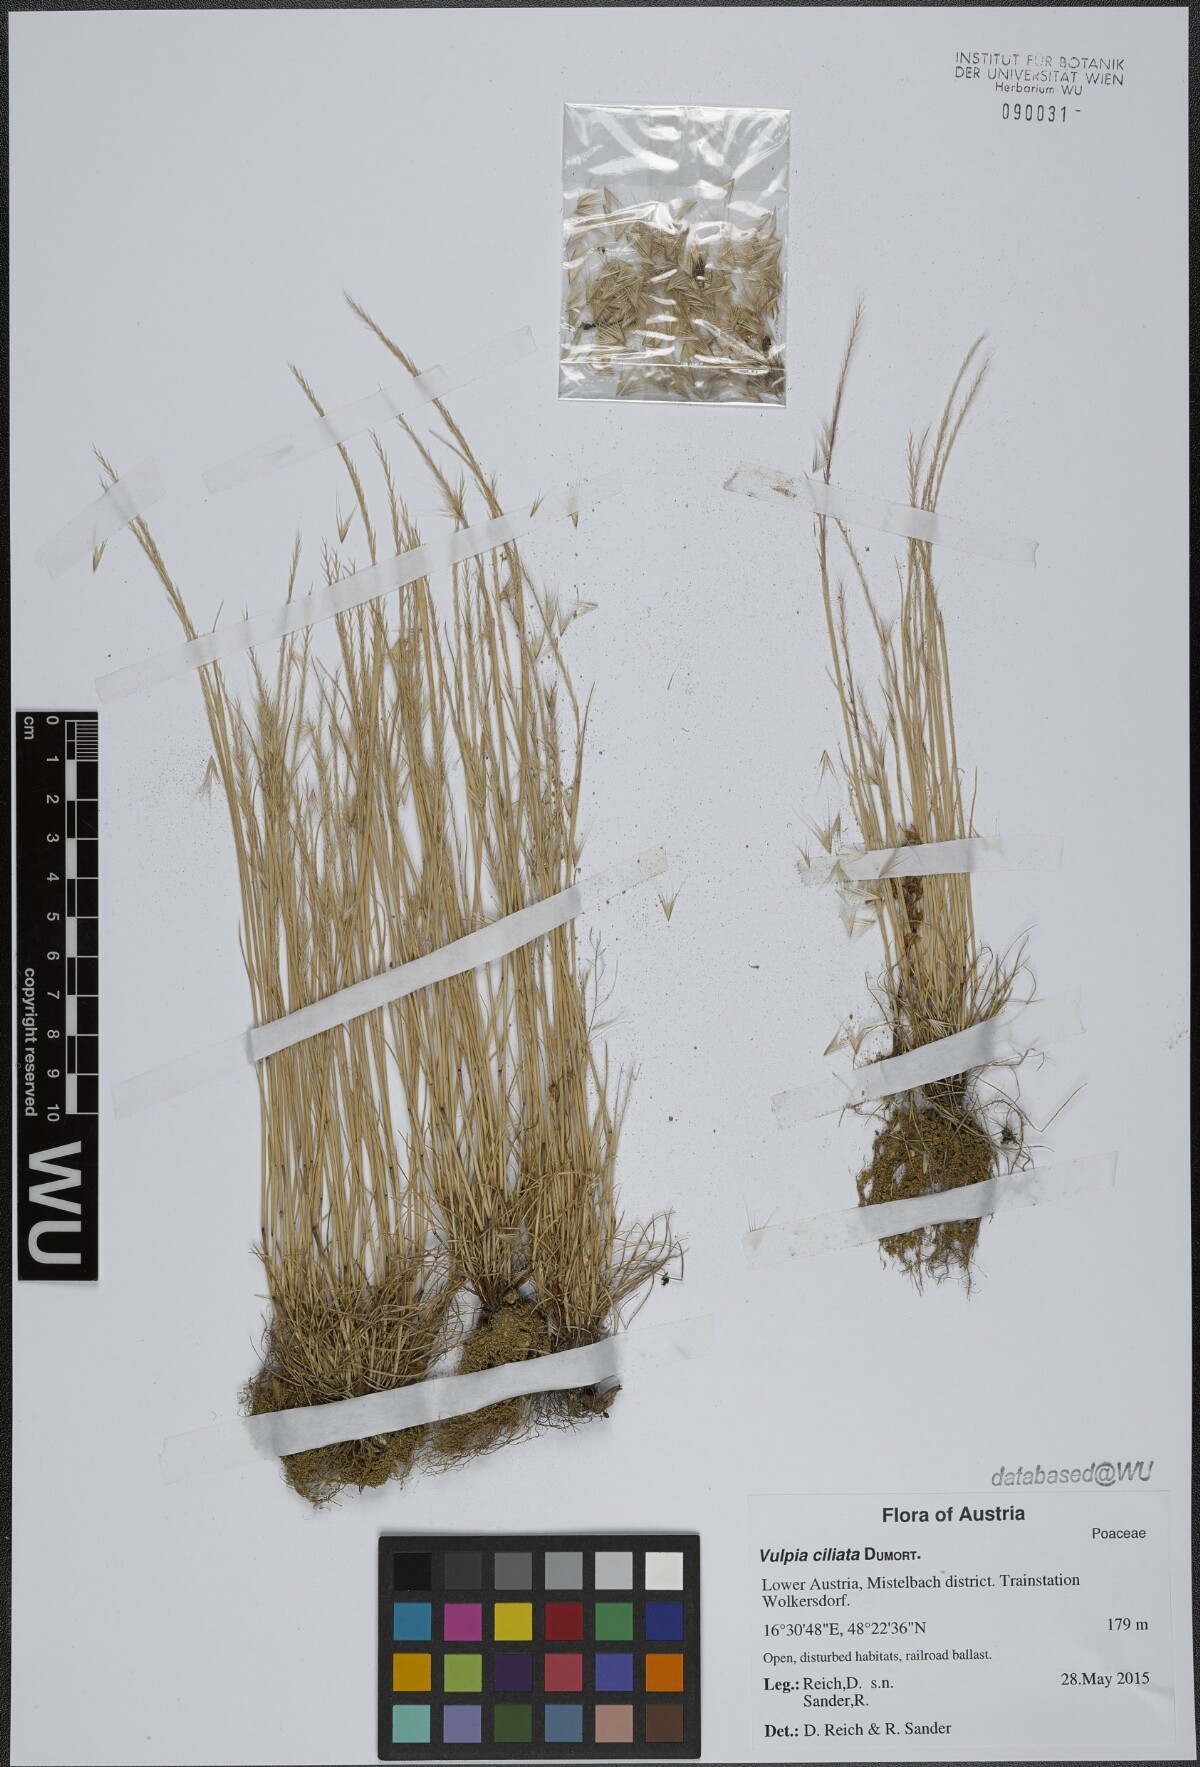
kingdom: Plantae
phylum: Tracheophyta
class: Liliopsida
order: Poales
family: Poaceae
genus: Festuca
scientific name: Festuca ambigua
